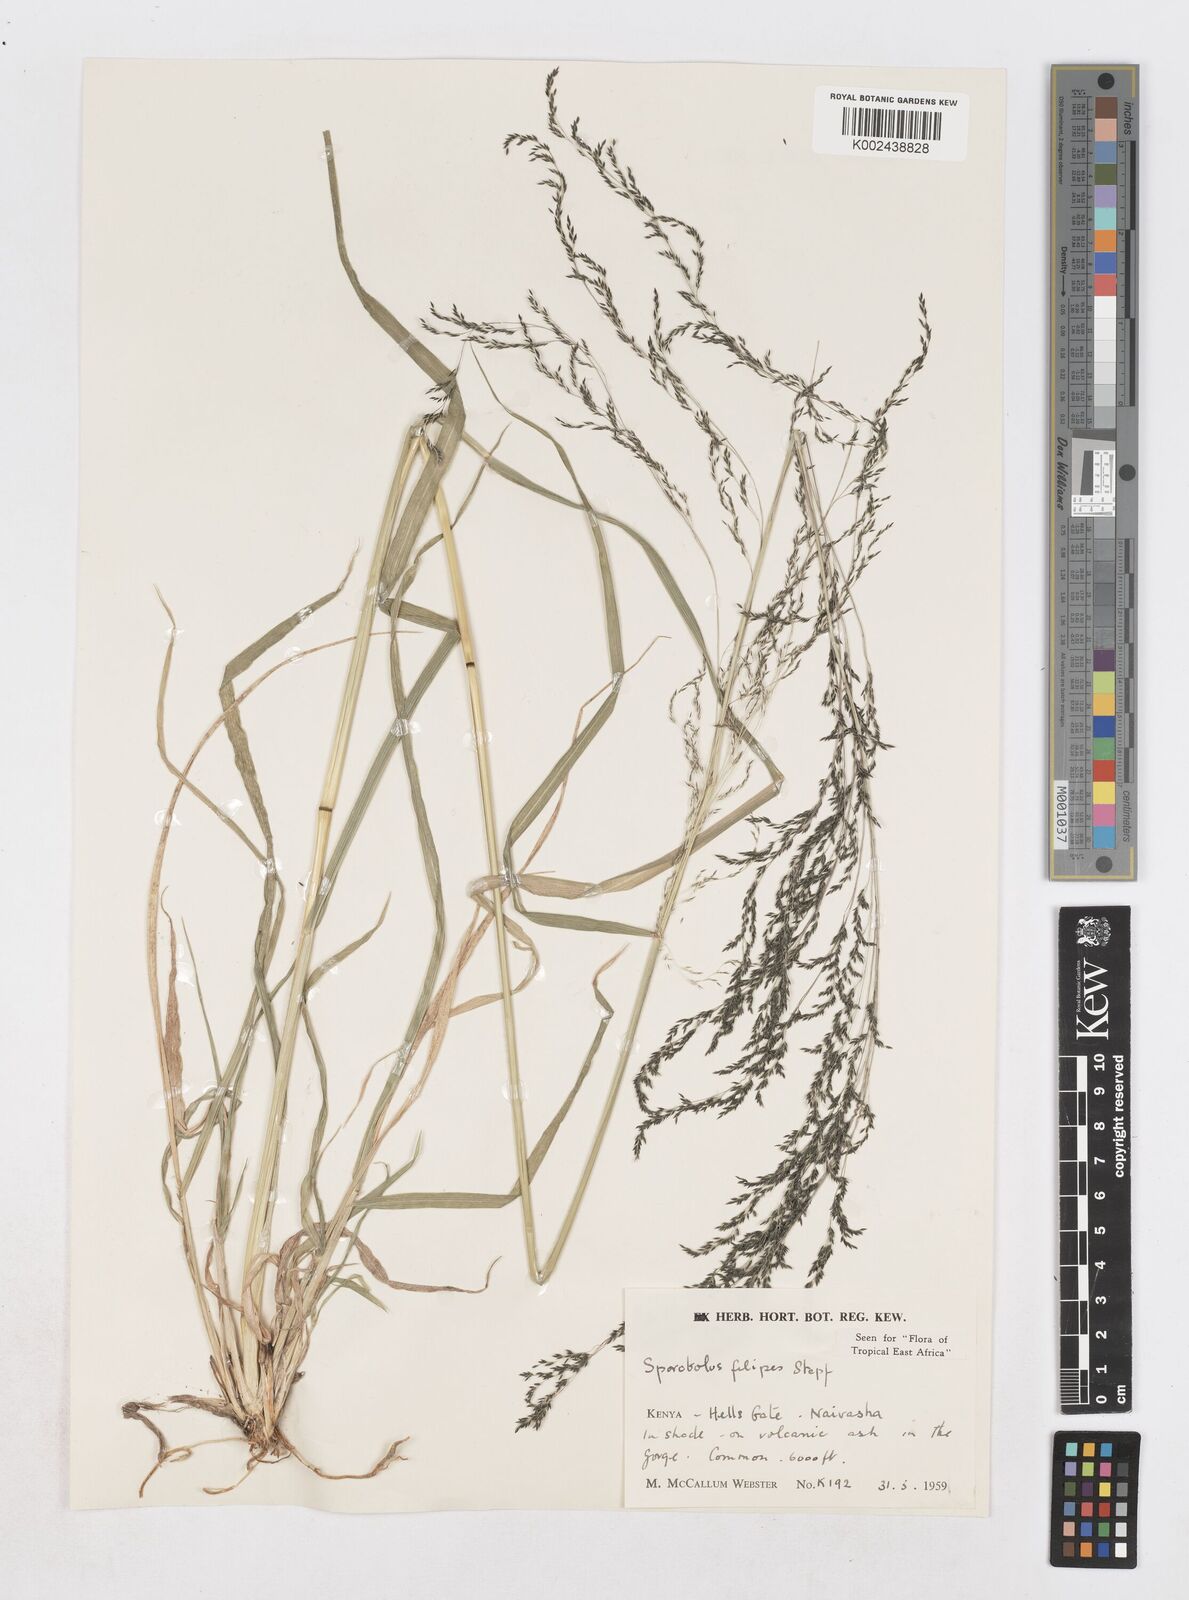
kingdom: Plantae
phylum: Tracheophyta
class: Liliopsida
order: Poales
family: Poaceae
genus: Sporobolus
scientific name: Sporobolus agrostoides
